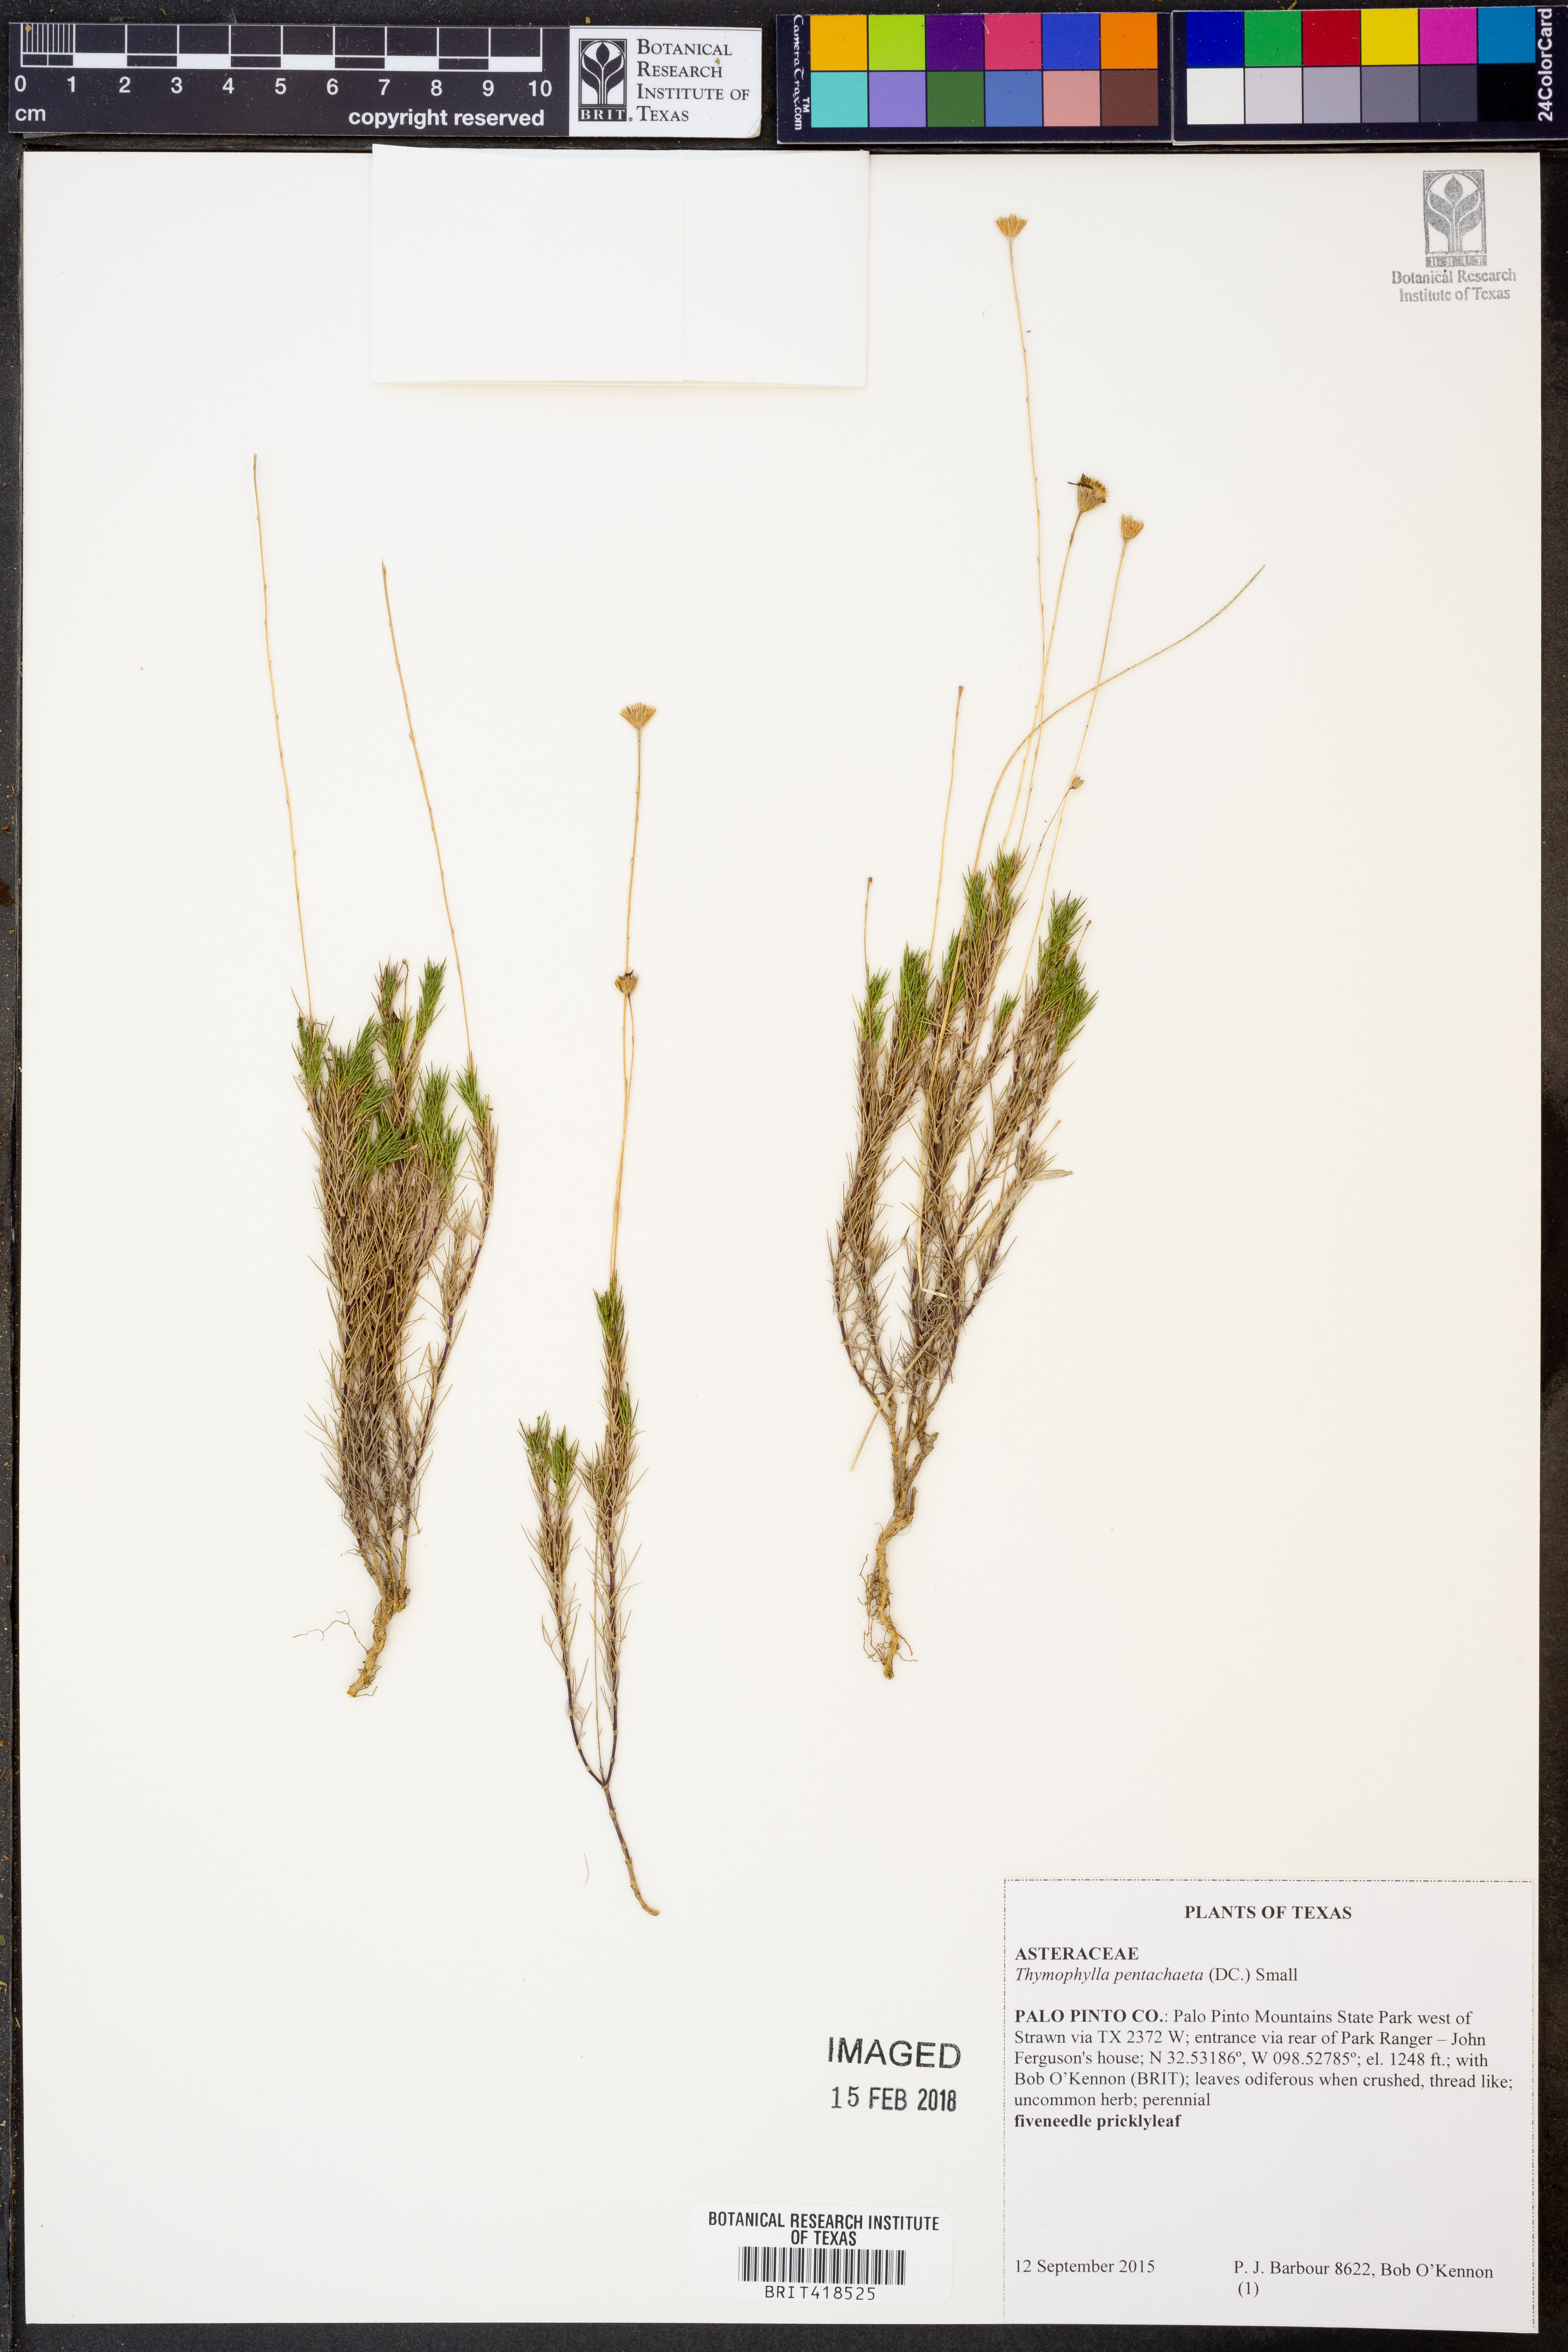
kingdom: Plantae
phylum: Tracheophyta
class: Magnoliopsida
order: Asterales
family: Asteraceae
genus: Thymophylla
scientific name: Thymophylla pentachaeta
